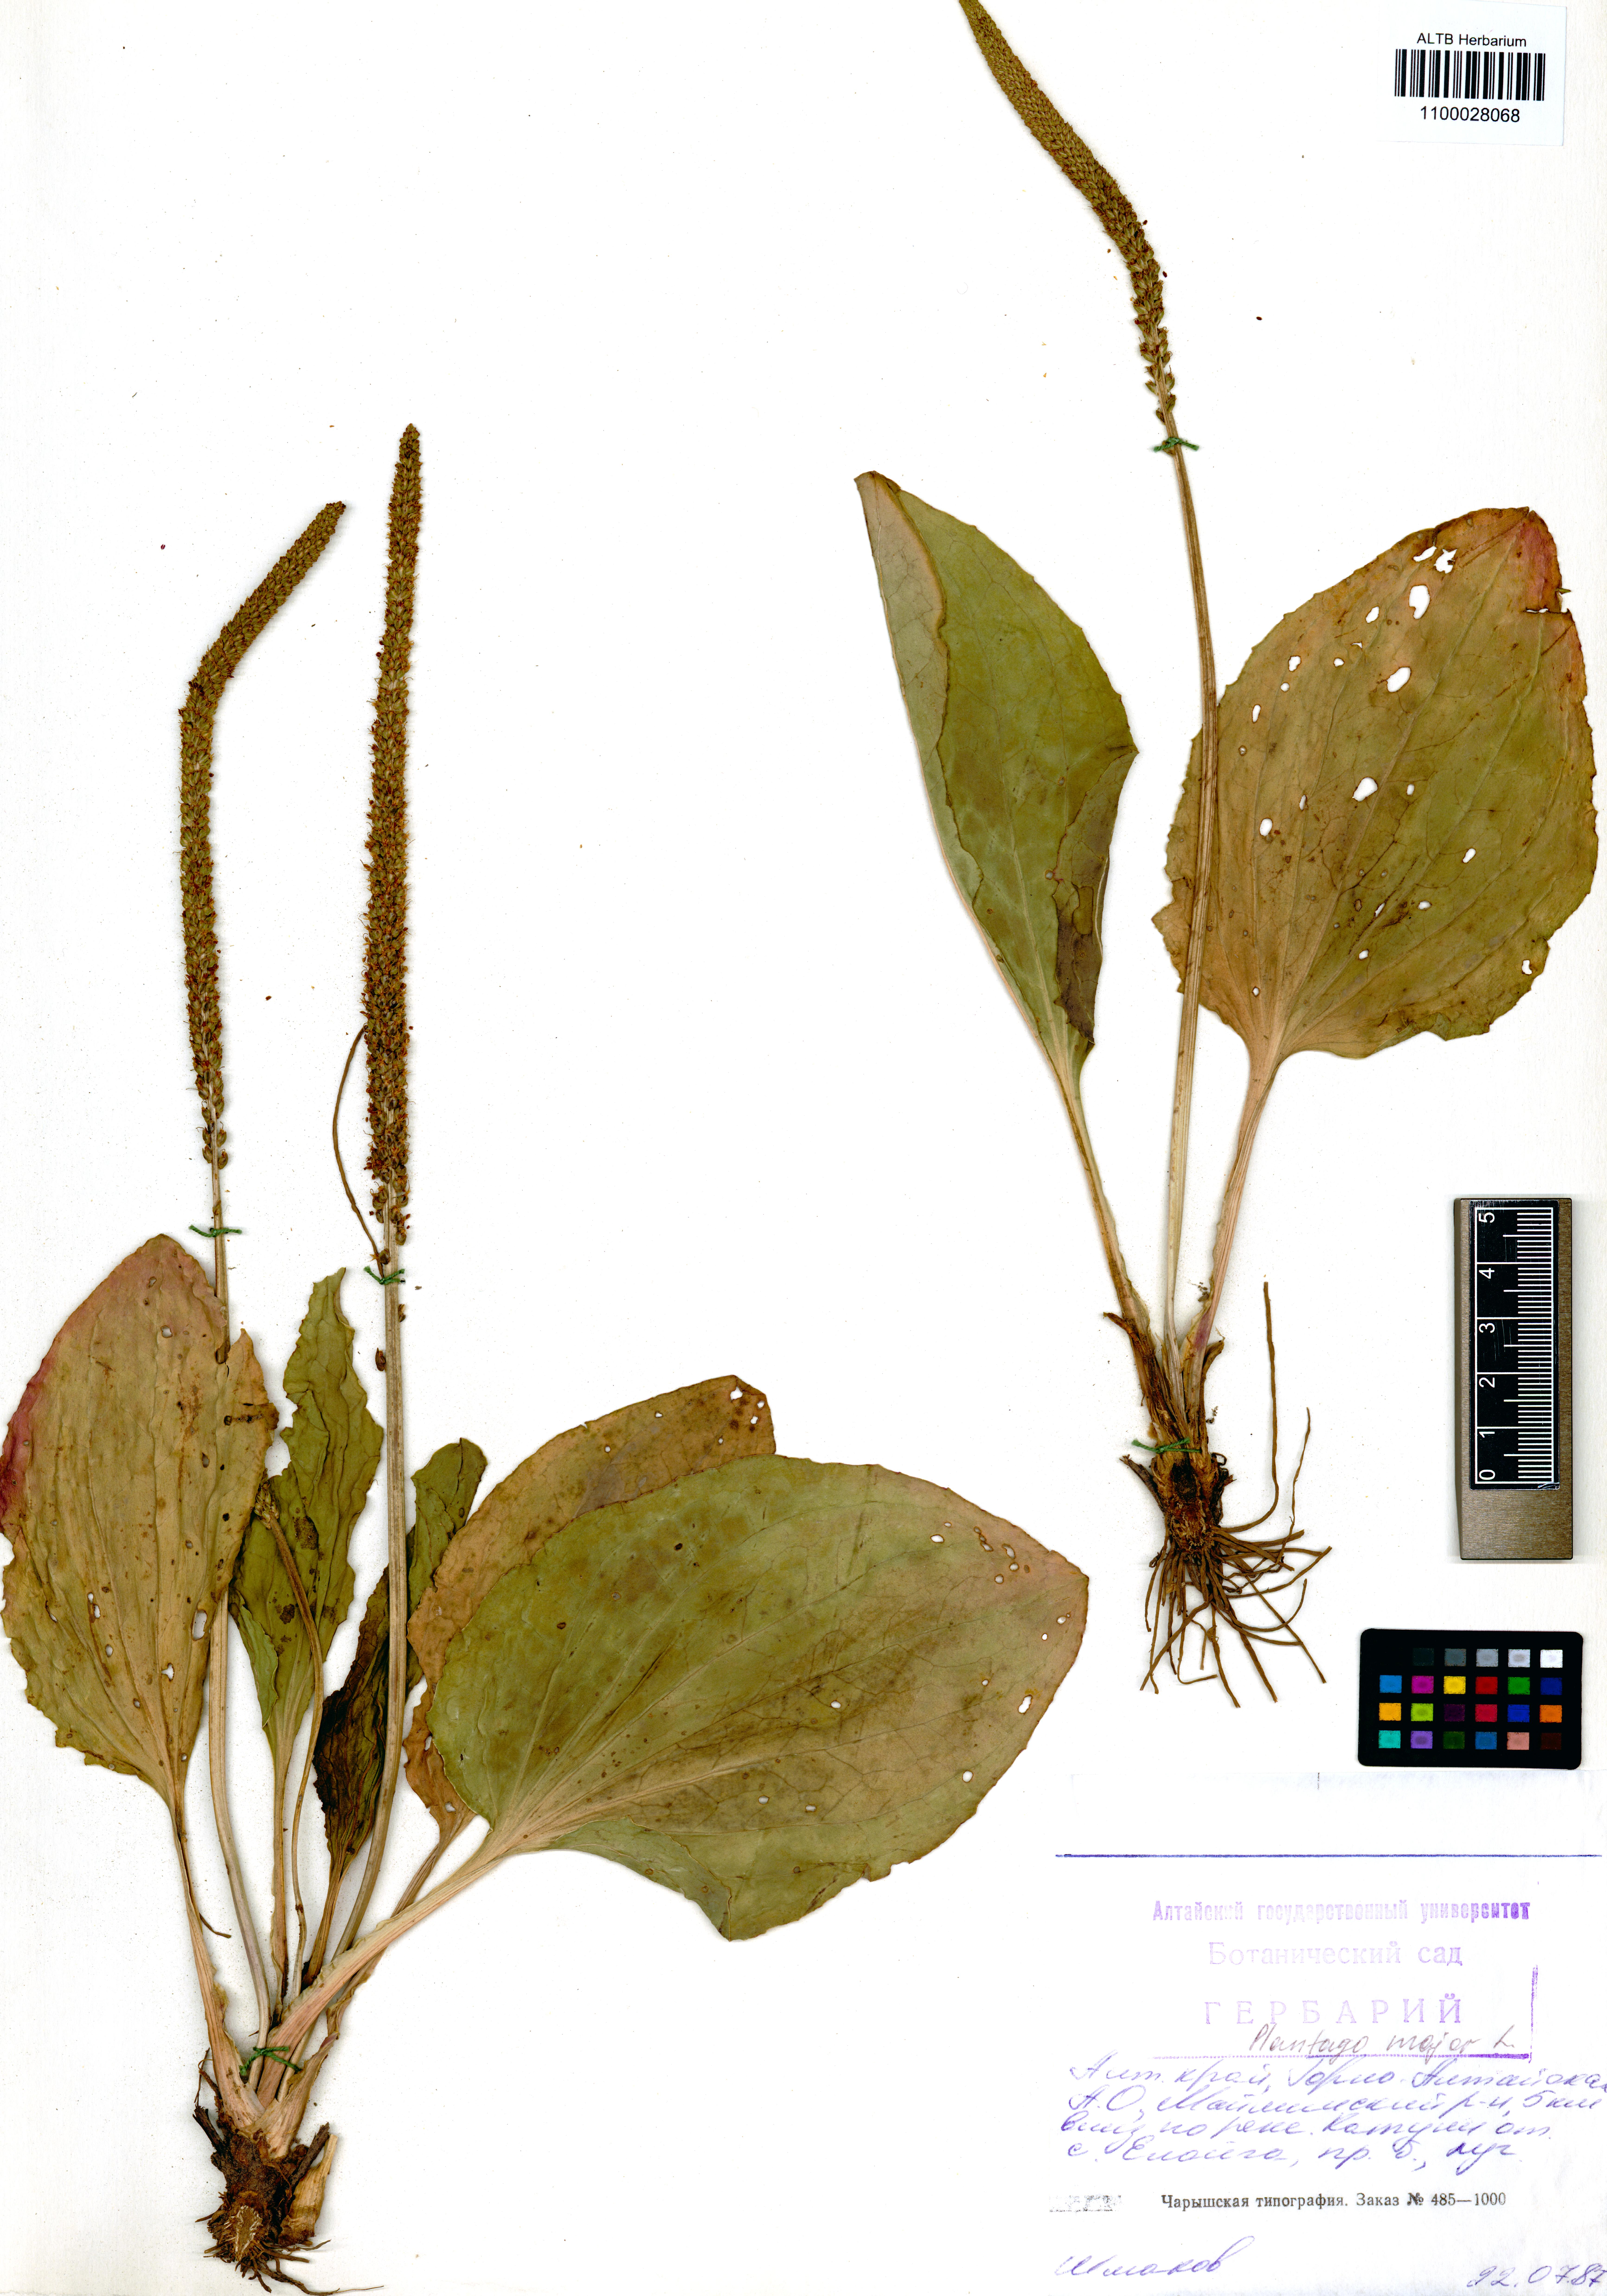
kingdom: Plantae
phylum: Tracheophyta
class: Magnoliopsida
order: Lamiales
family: Plantaginaceae
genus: Plantago
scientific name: Plantago major
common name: Common plantain
